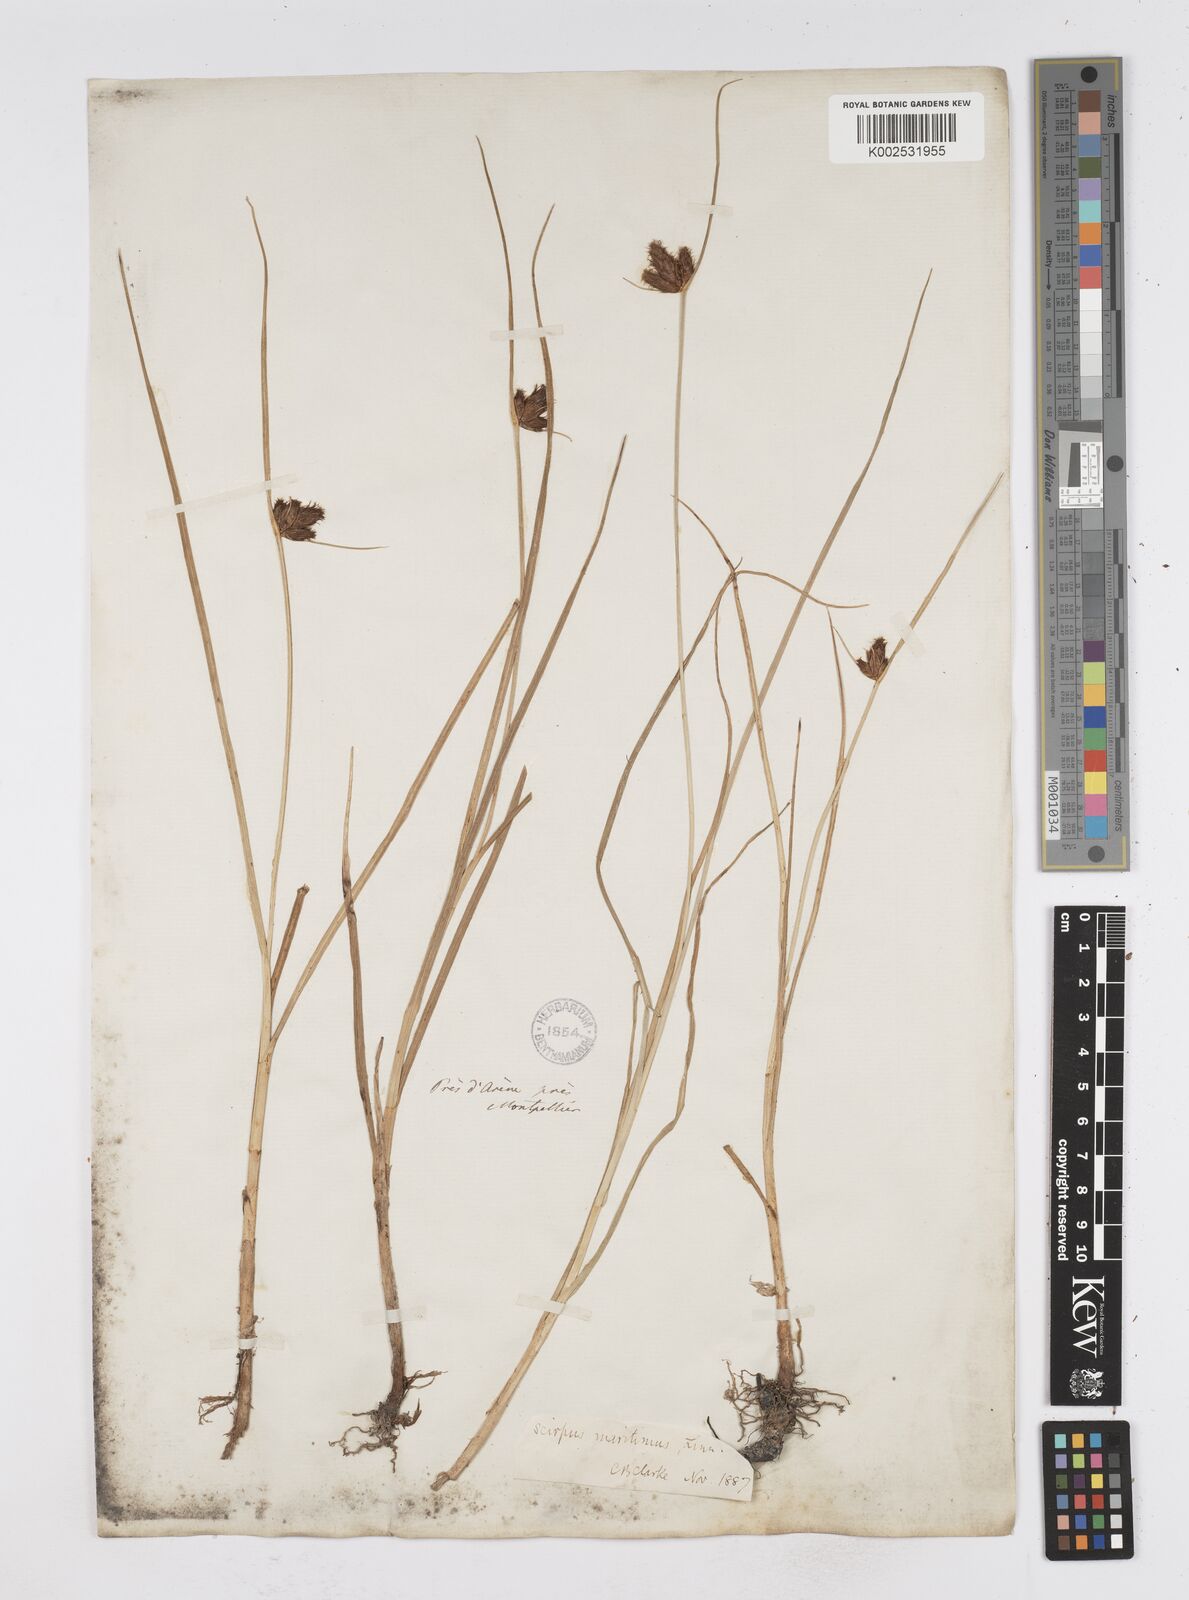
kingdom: Plantae
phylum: Tracheophyta
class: Liliopsida
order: Poales
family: Cyperaceae
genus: Bolboschoenus
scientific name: Bolboschoenus maritimus
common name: Sea club-rush
